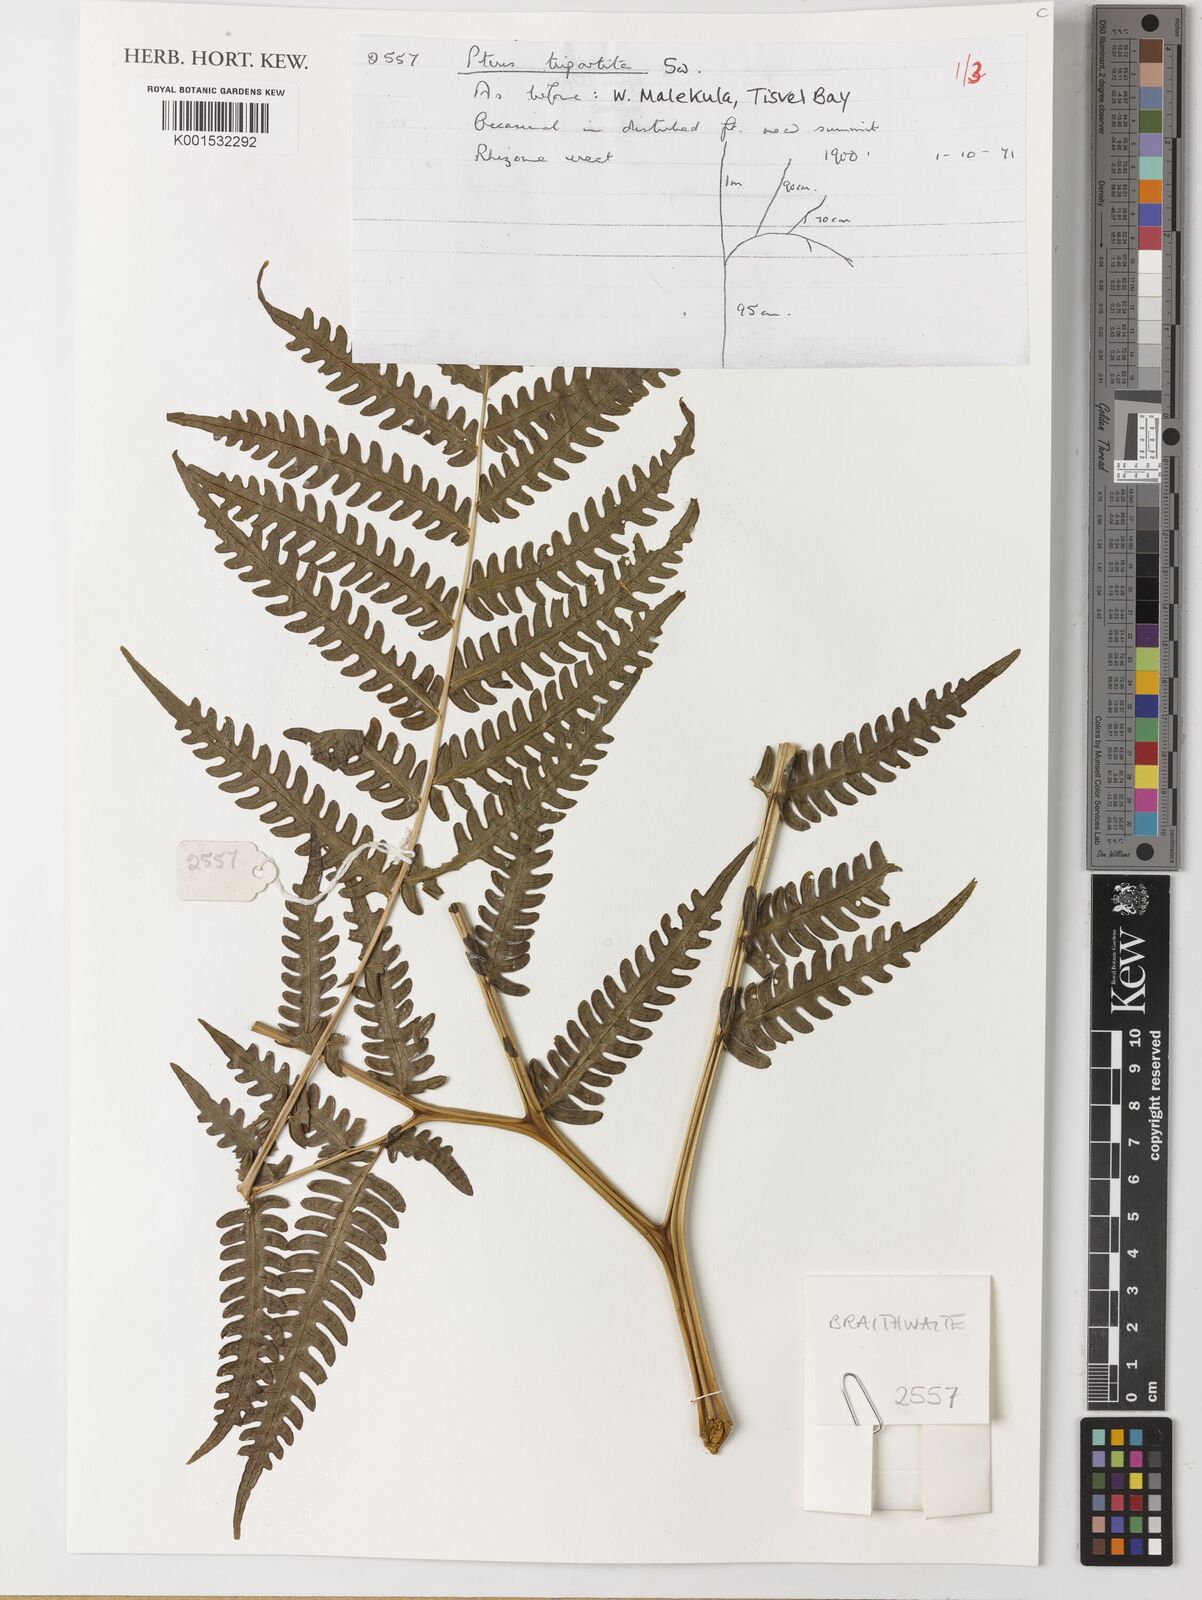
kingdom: Plantae
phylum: Tracheophyta
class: Polypodiopsida
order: Polypodiales
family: Pteridaceae
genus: Pteris
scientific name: Pteris tripartita
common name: Giant brake
